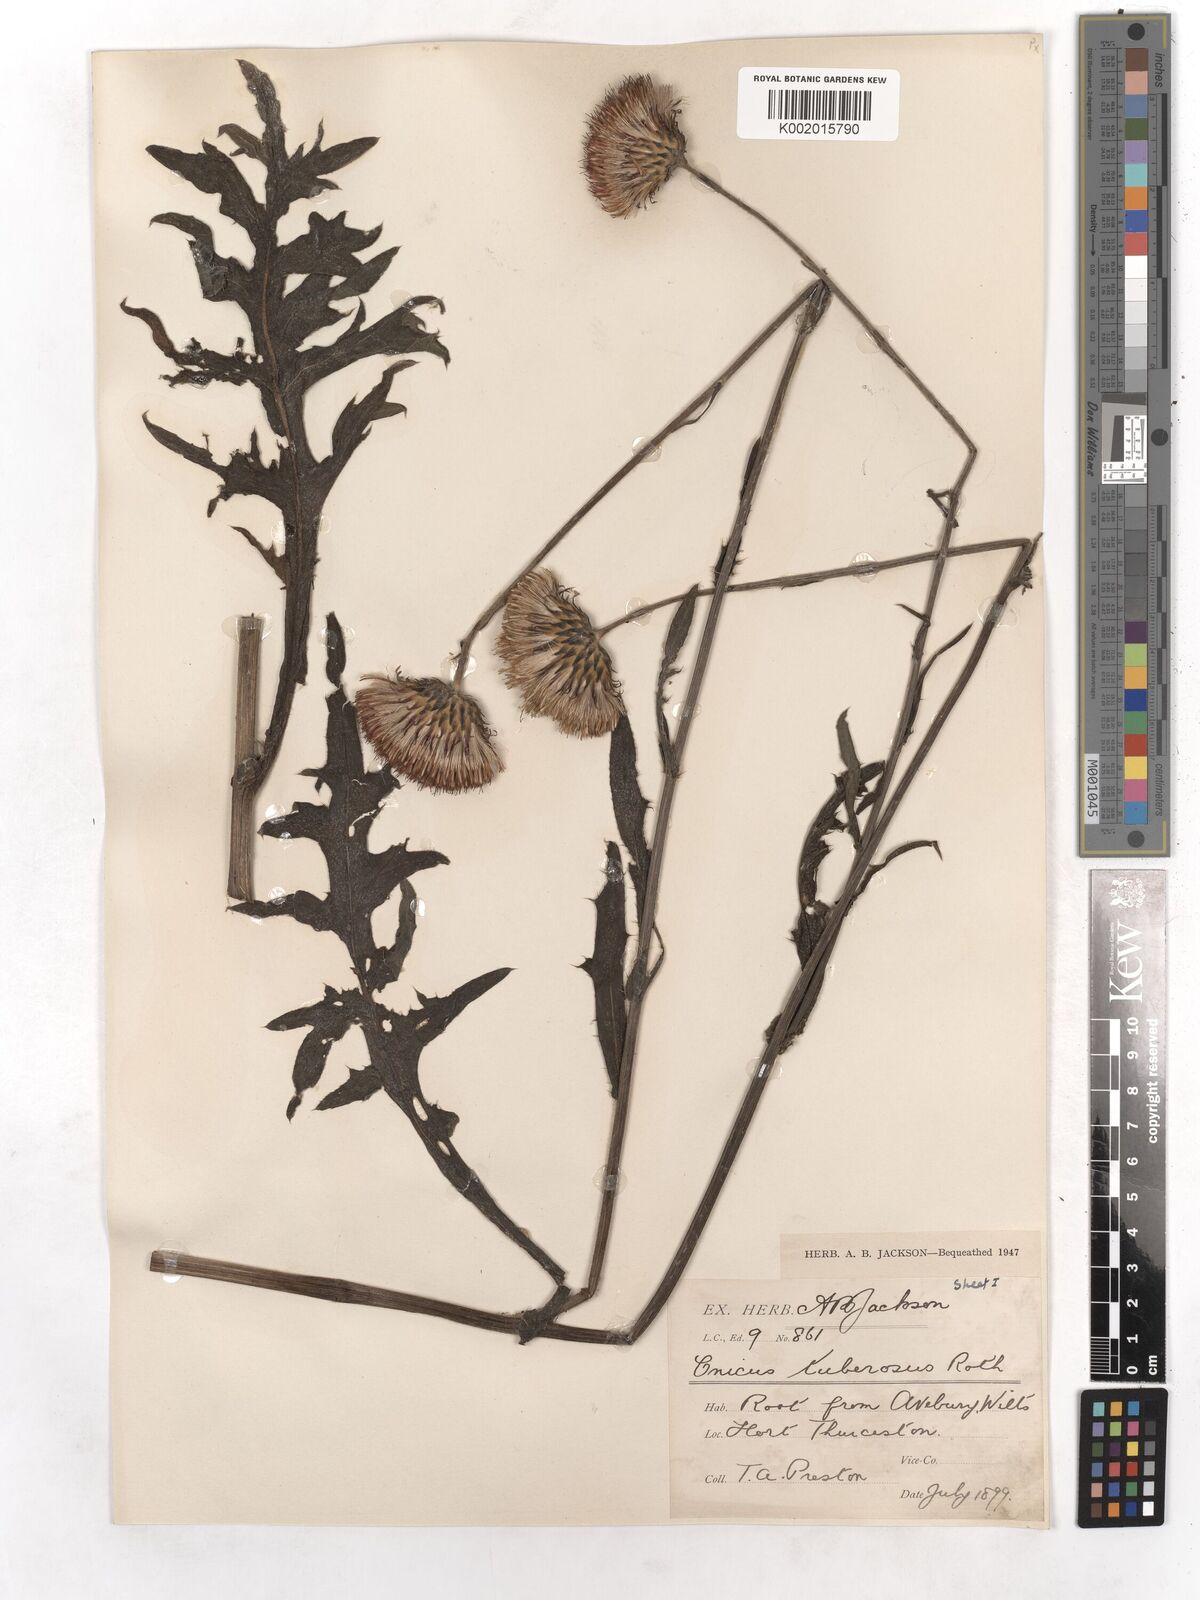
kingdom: Plantae
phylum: Tracheophyta
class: Magnoliopsida
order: Asterales
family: Asteraceae
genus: Cirsium
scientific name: Cirsium tuberosum
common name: Tuberous thistle
